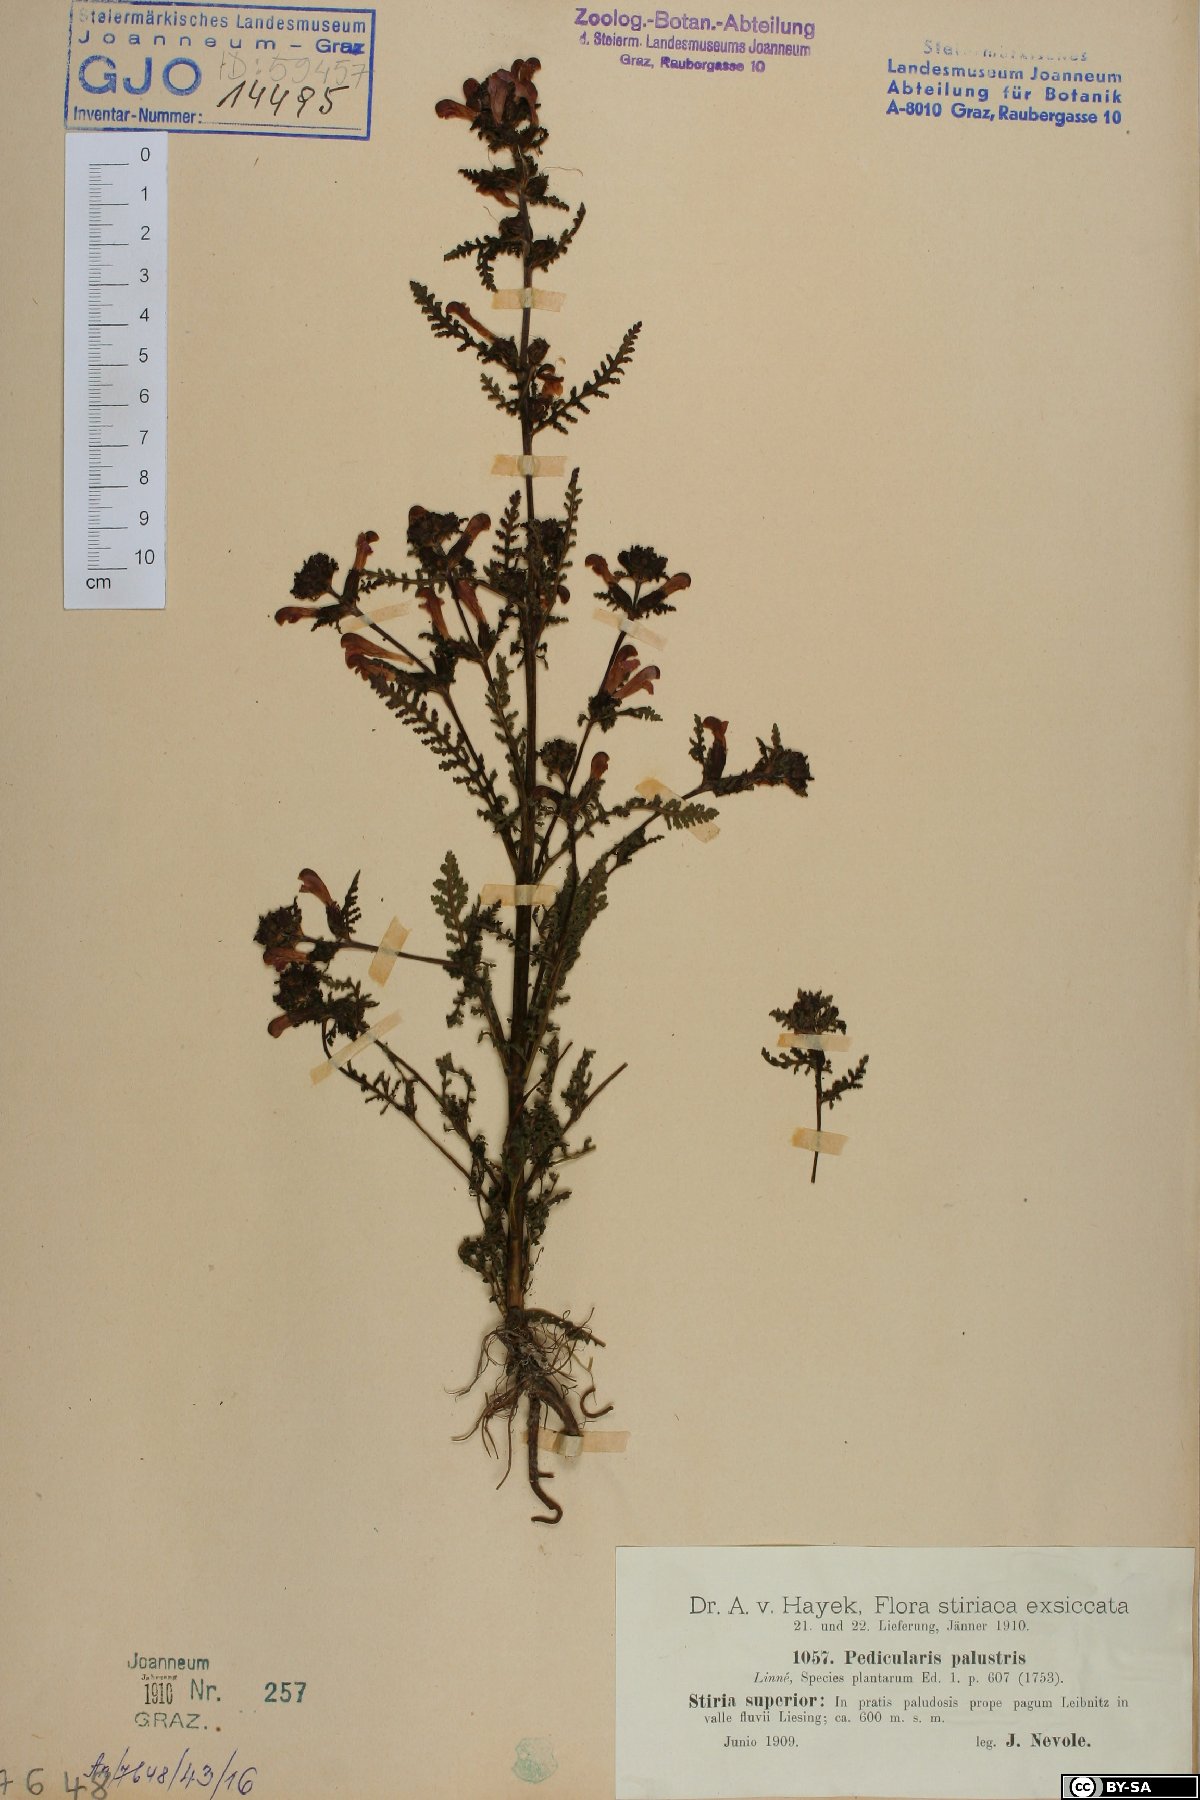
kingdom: Plantae
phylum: Tracheophyta
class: Magnoliopsida
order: Lamiales
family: Orobanchaceae
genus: Pedicularis
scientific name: Pedicularis palustris
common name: Marsh lousewort
